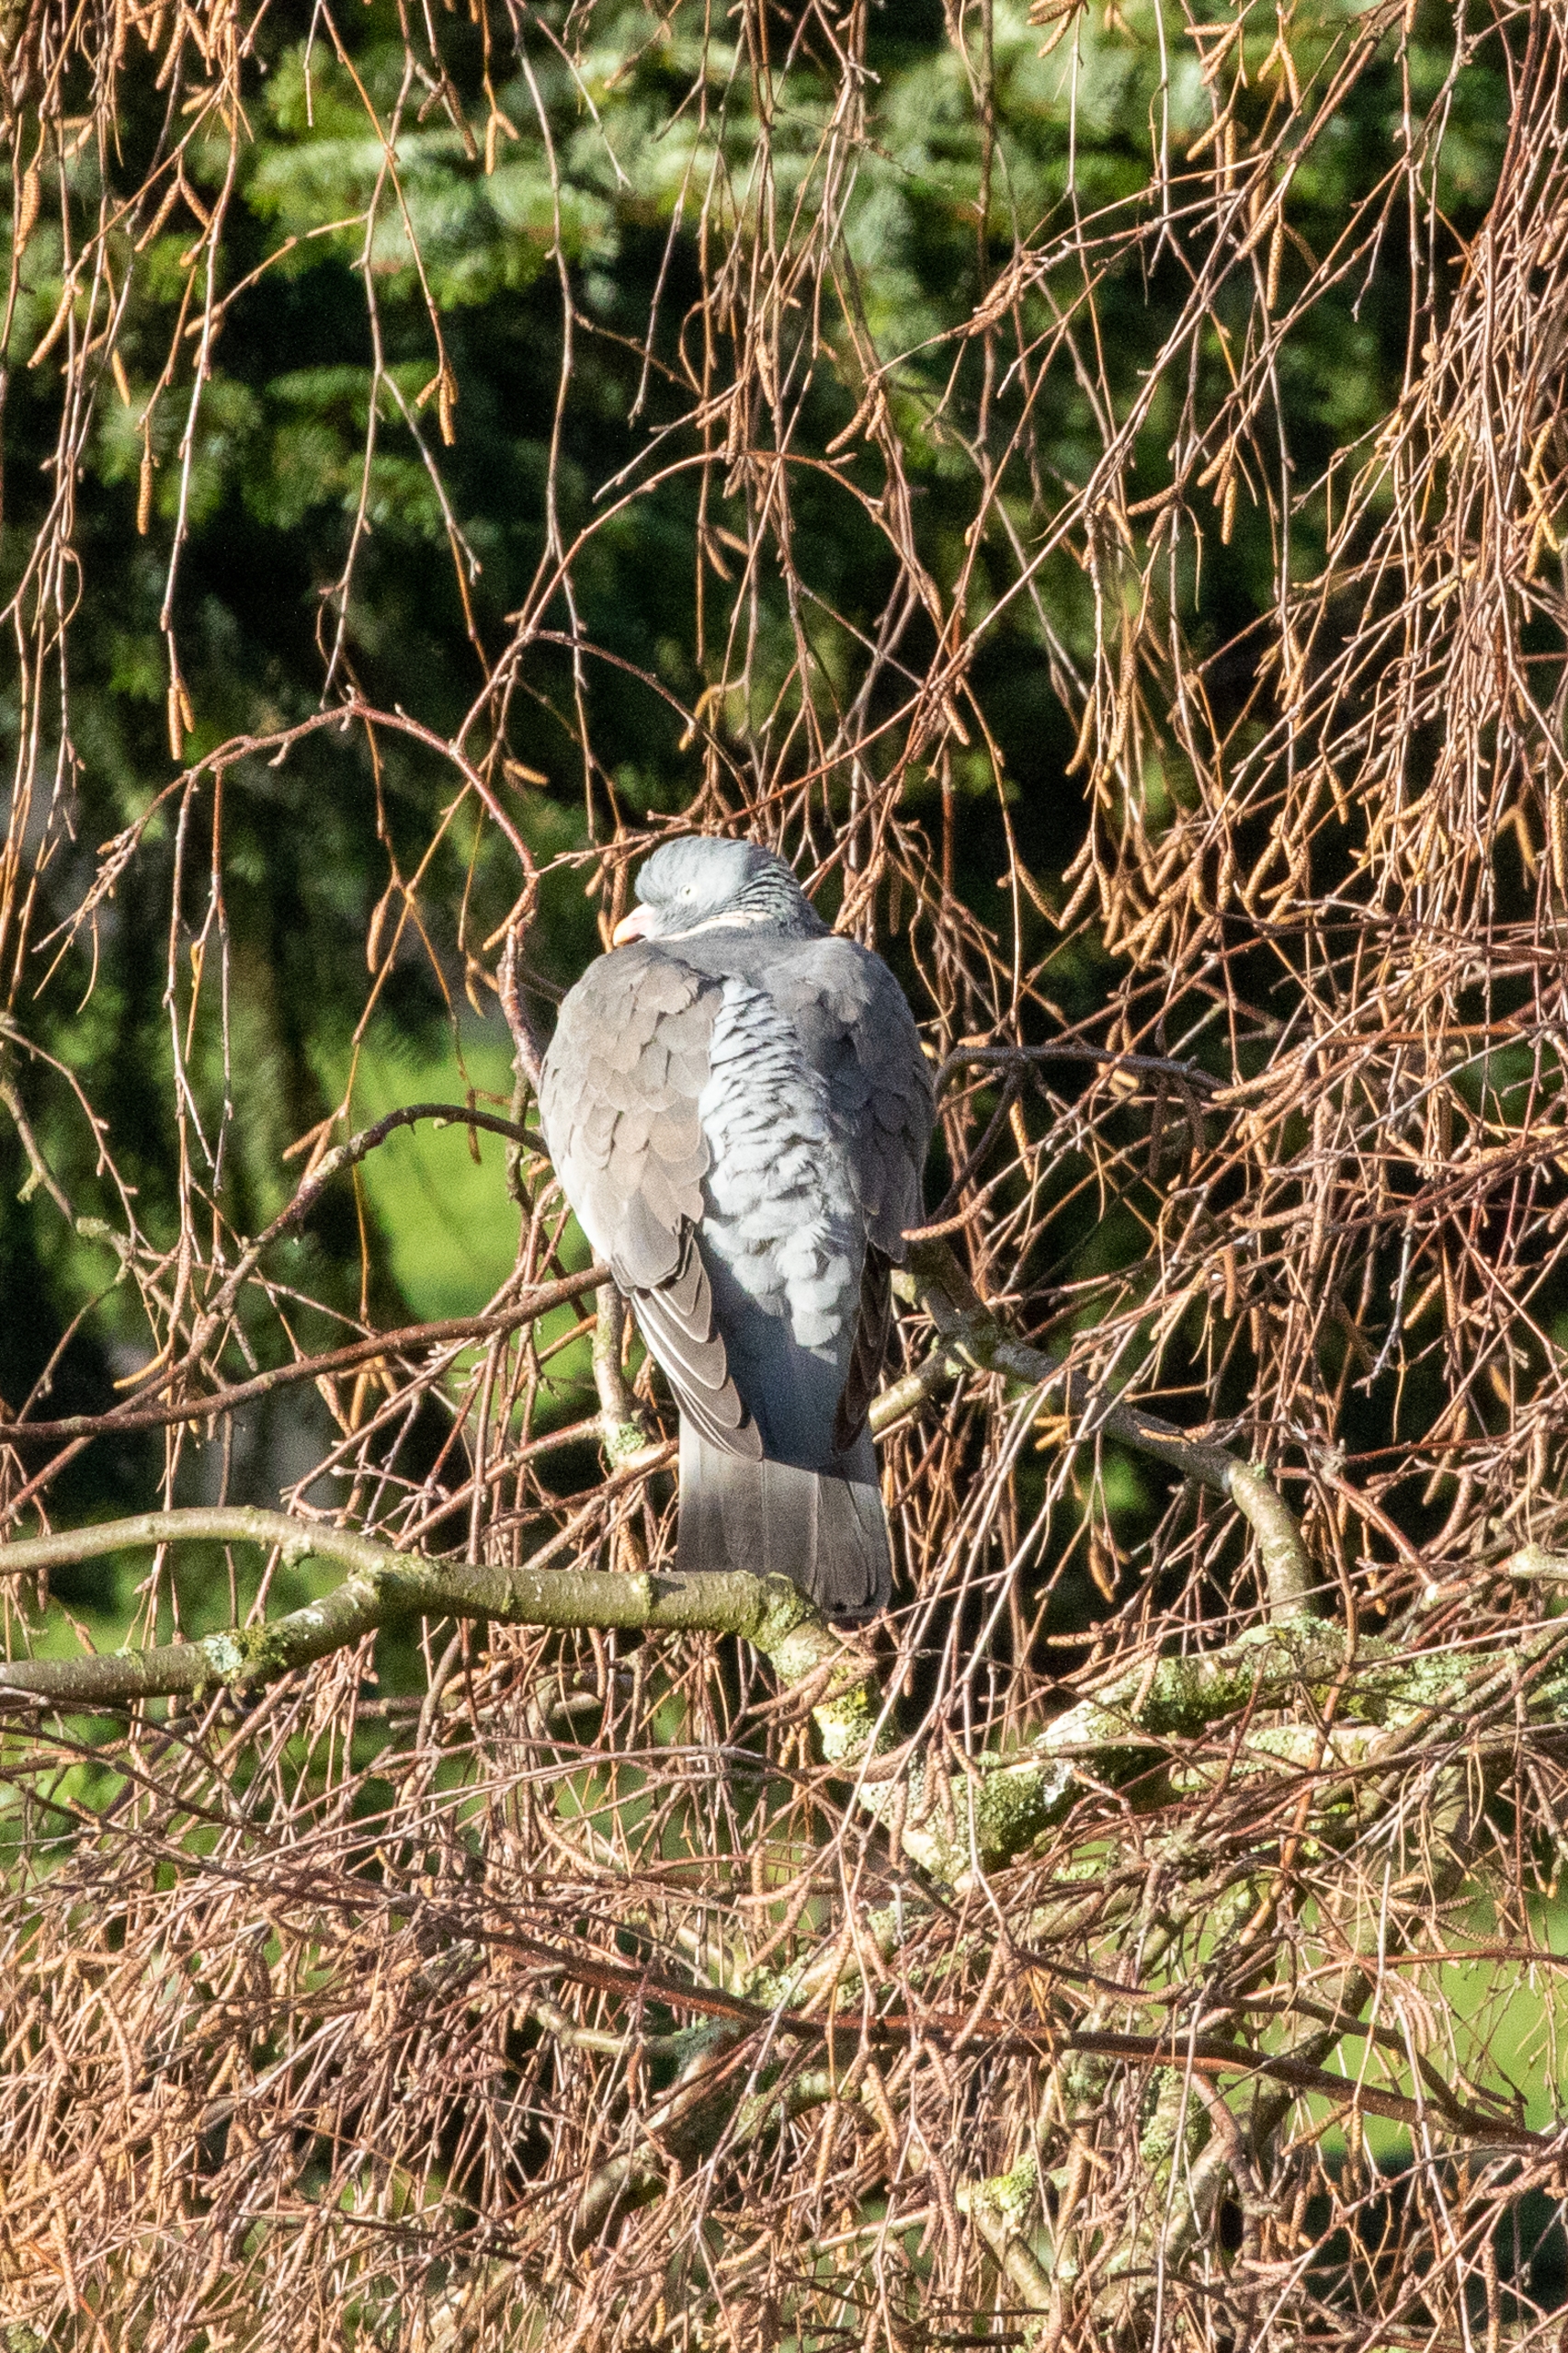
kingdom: Animalia
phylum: Chordata
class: Aves
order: Columbiformes
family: Columbidae
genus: Columba
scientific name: Columba palumbus
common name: Ringdue
